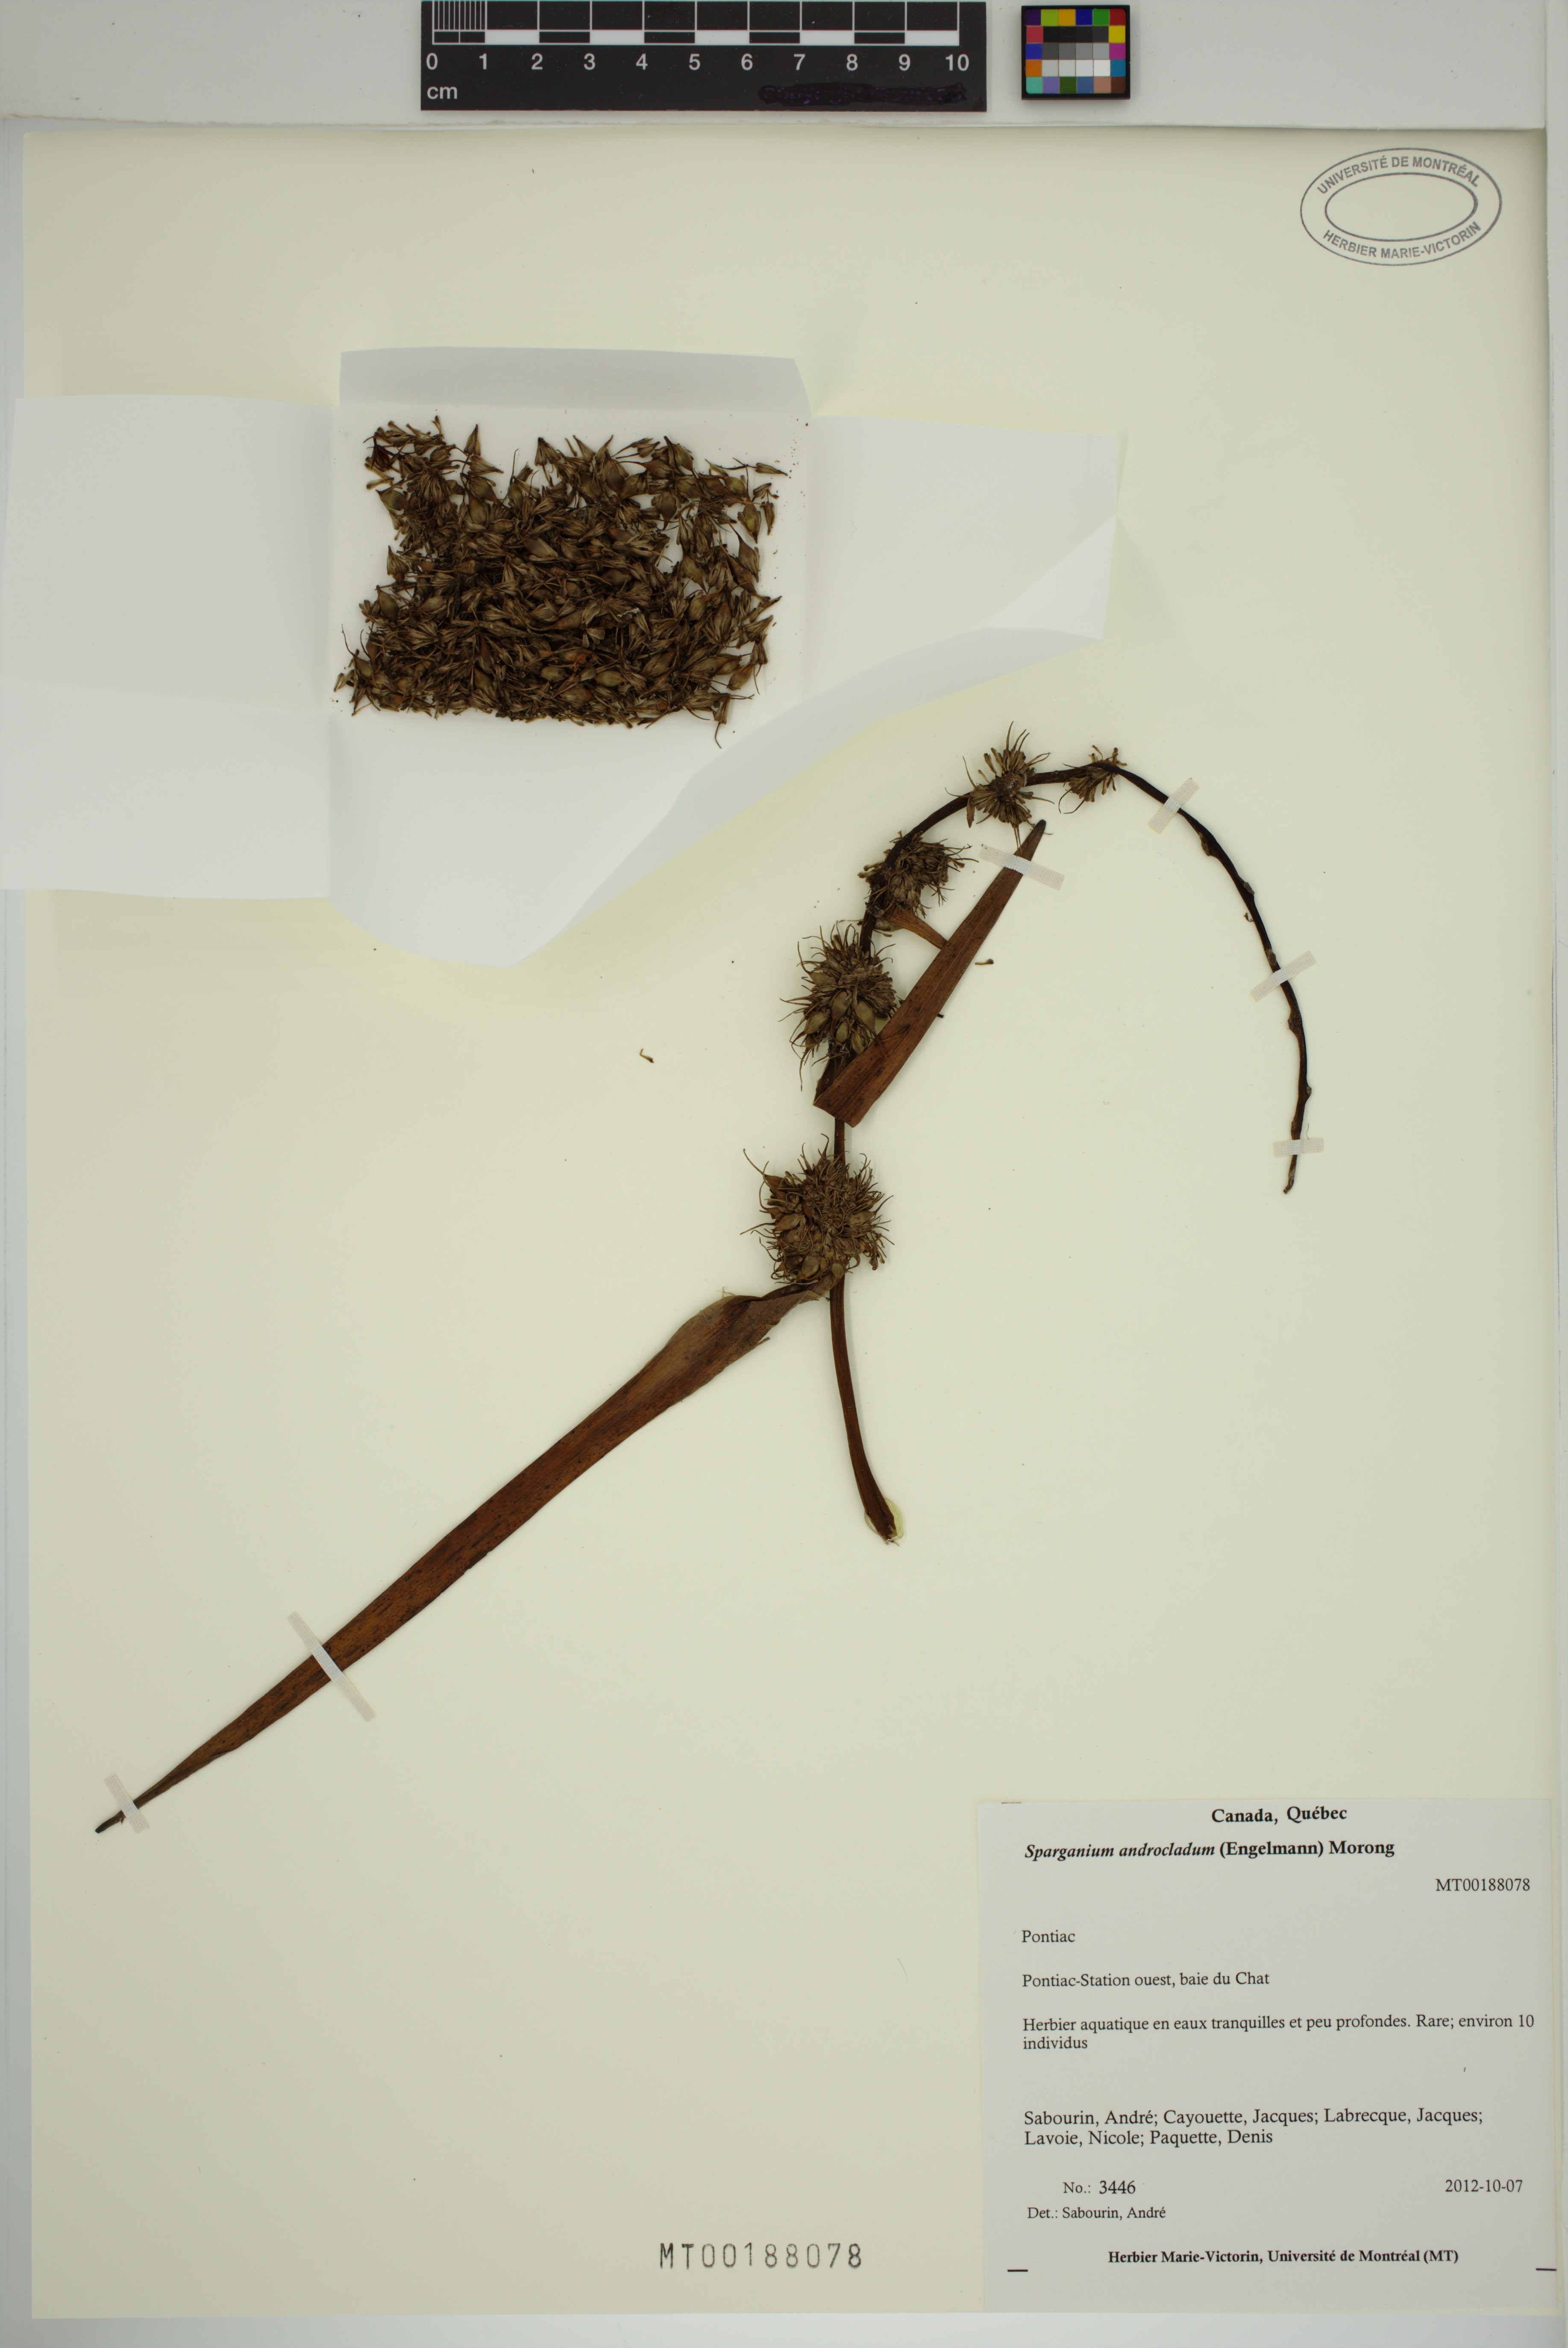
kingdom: Plantae
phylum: Tracheophyta
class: Liliopsida
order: Poales
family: Typhaceae
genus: Sparganium
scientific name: Sparganium androcladum
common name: Branched burreed
